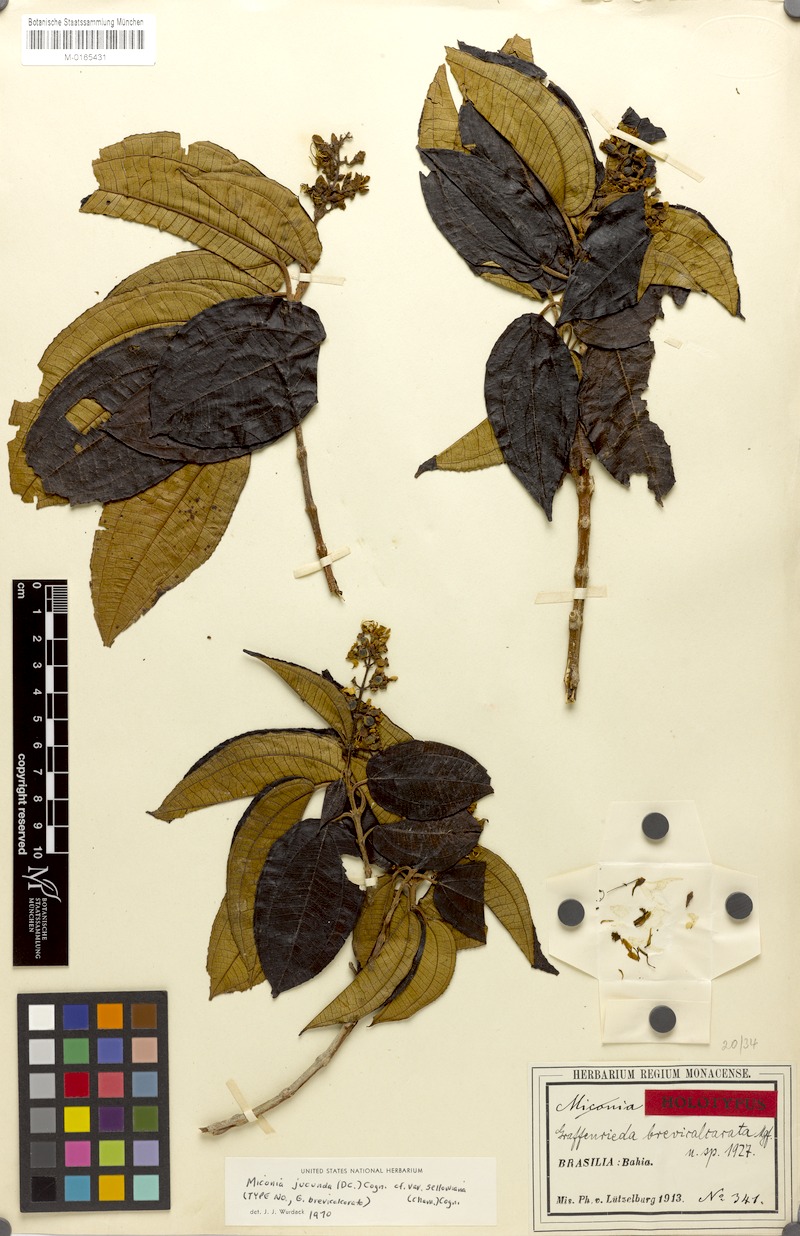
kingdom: Plantae
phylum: Tracheophyta
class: Magnoliopsida
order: Myrtales
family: Melastomataceae
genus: Miconia
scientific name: Miconia jucunda
